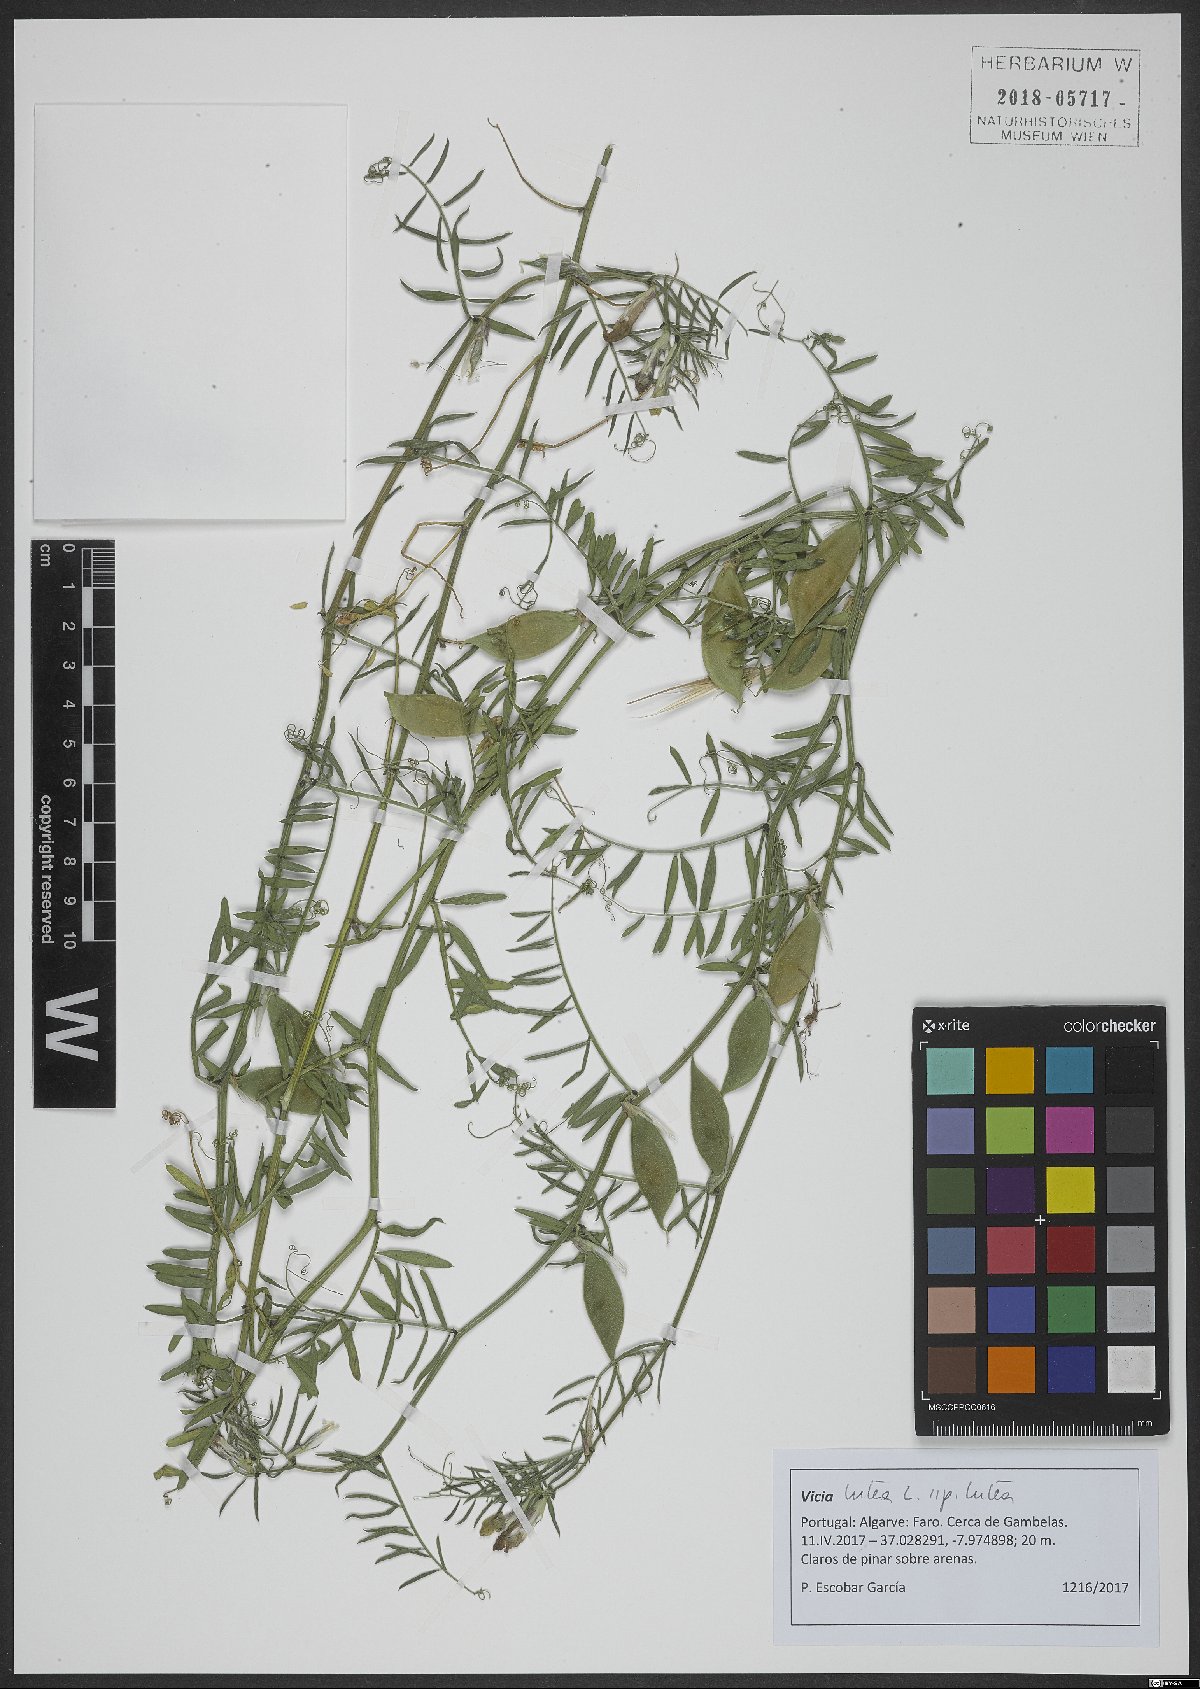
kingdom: Plantae
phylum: Tracheophyta
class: Magnoliopsida
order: Fabales
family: Fabaceae
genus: Vicia
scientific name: Vicia lutea
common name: Smooth yellow vetch
